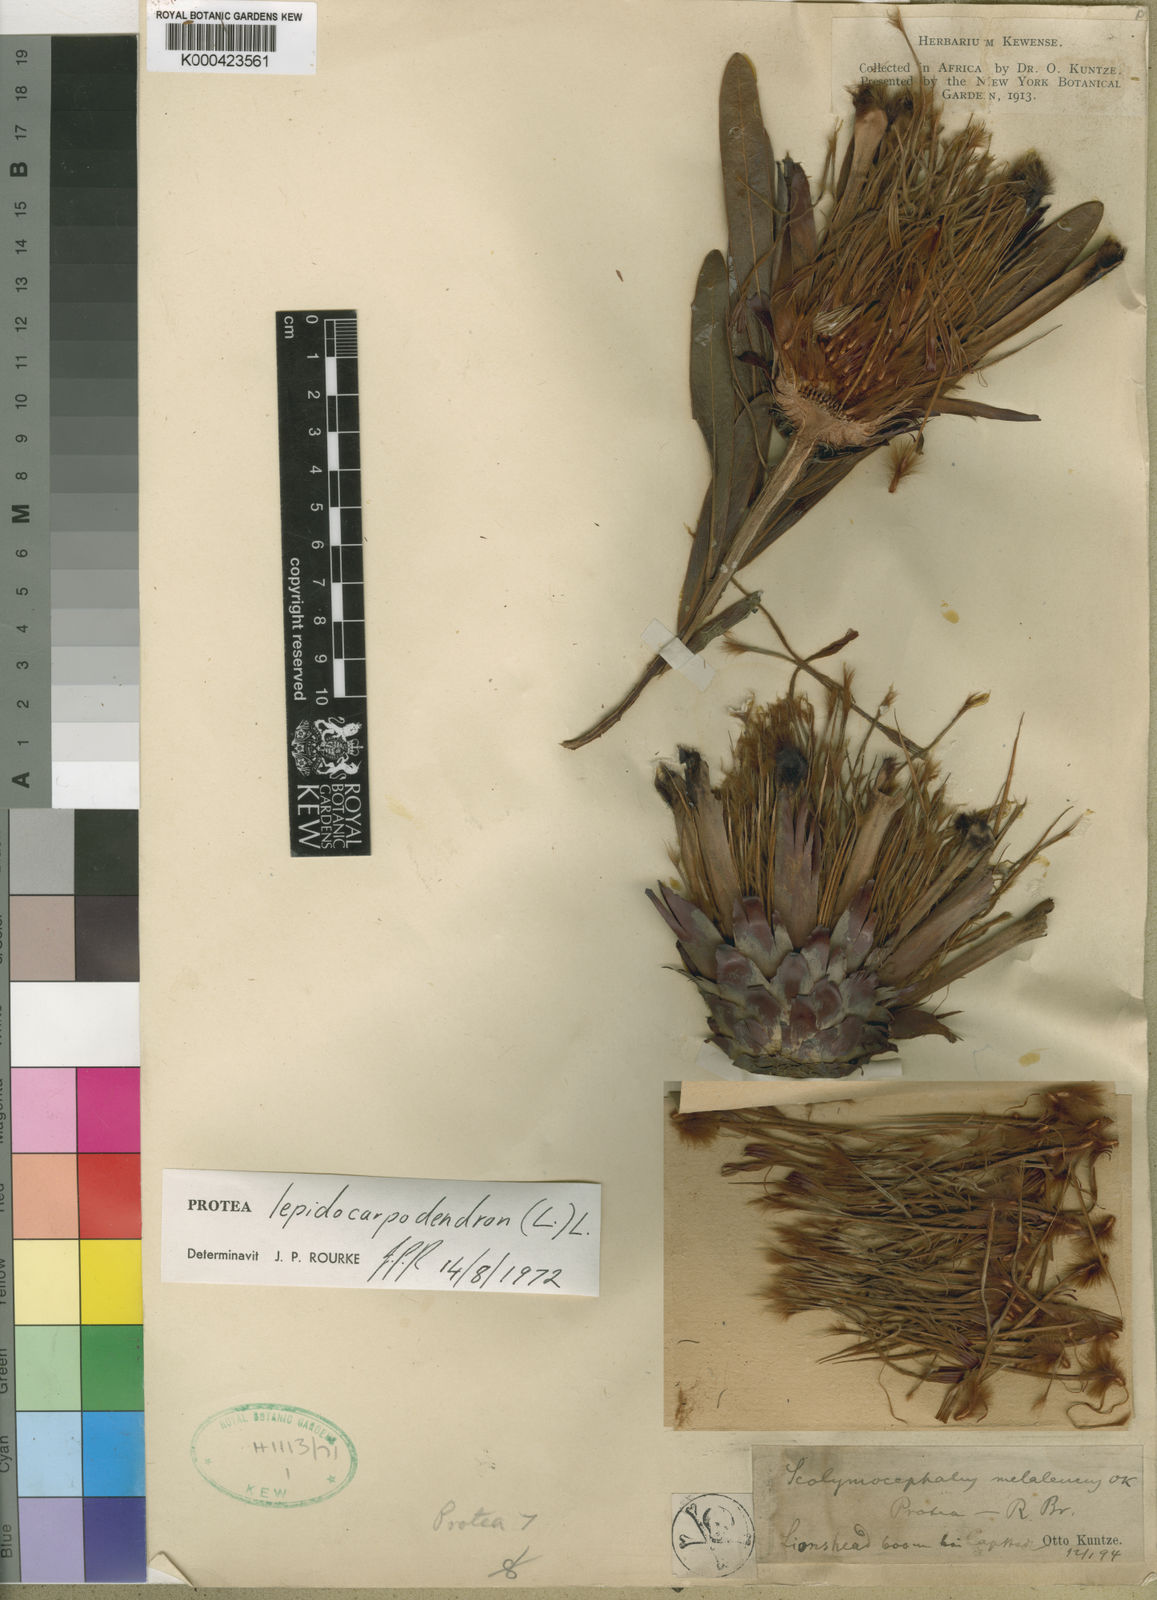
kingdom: Plantae
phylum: Tracheophyta
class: Magnoliopsida
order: Proteales
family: Proteaceae
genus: Protea
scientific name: Protea lepidocarpodendron
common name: Black-bearded protea
